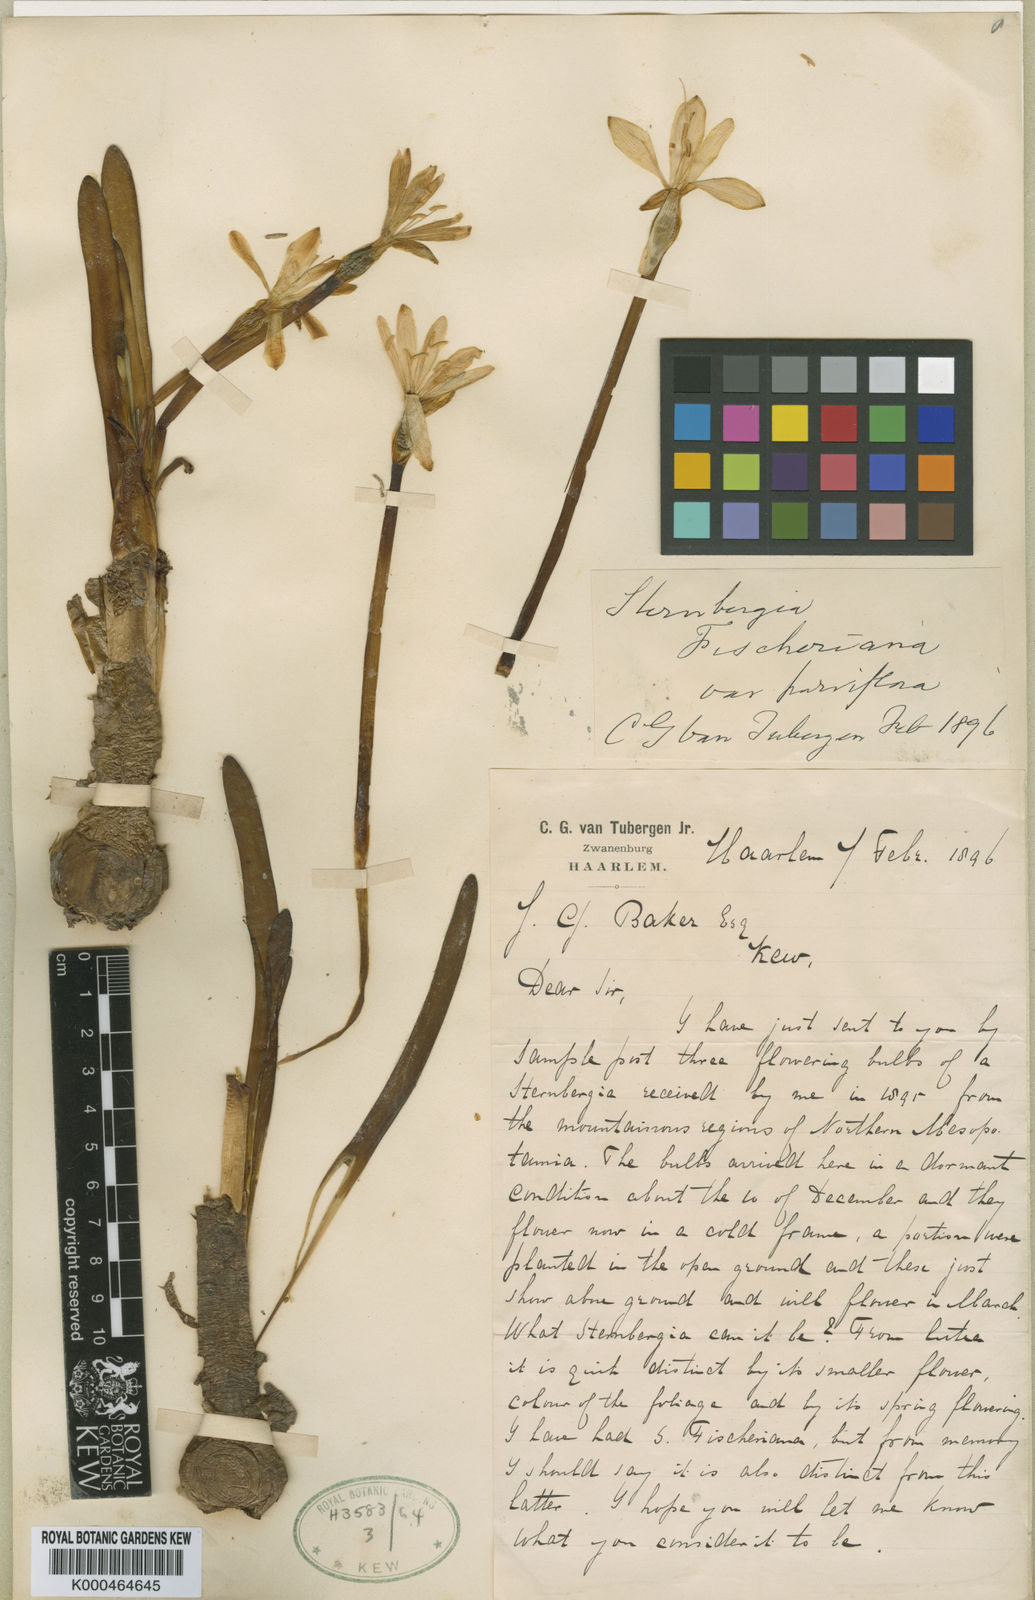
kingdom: Plantae
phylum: Tracheophyta
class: Liliopsida
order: Asparagales
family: Amaryllidaceae
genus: Sternbergia
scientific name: Sternbergia vernalis
